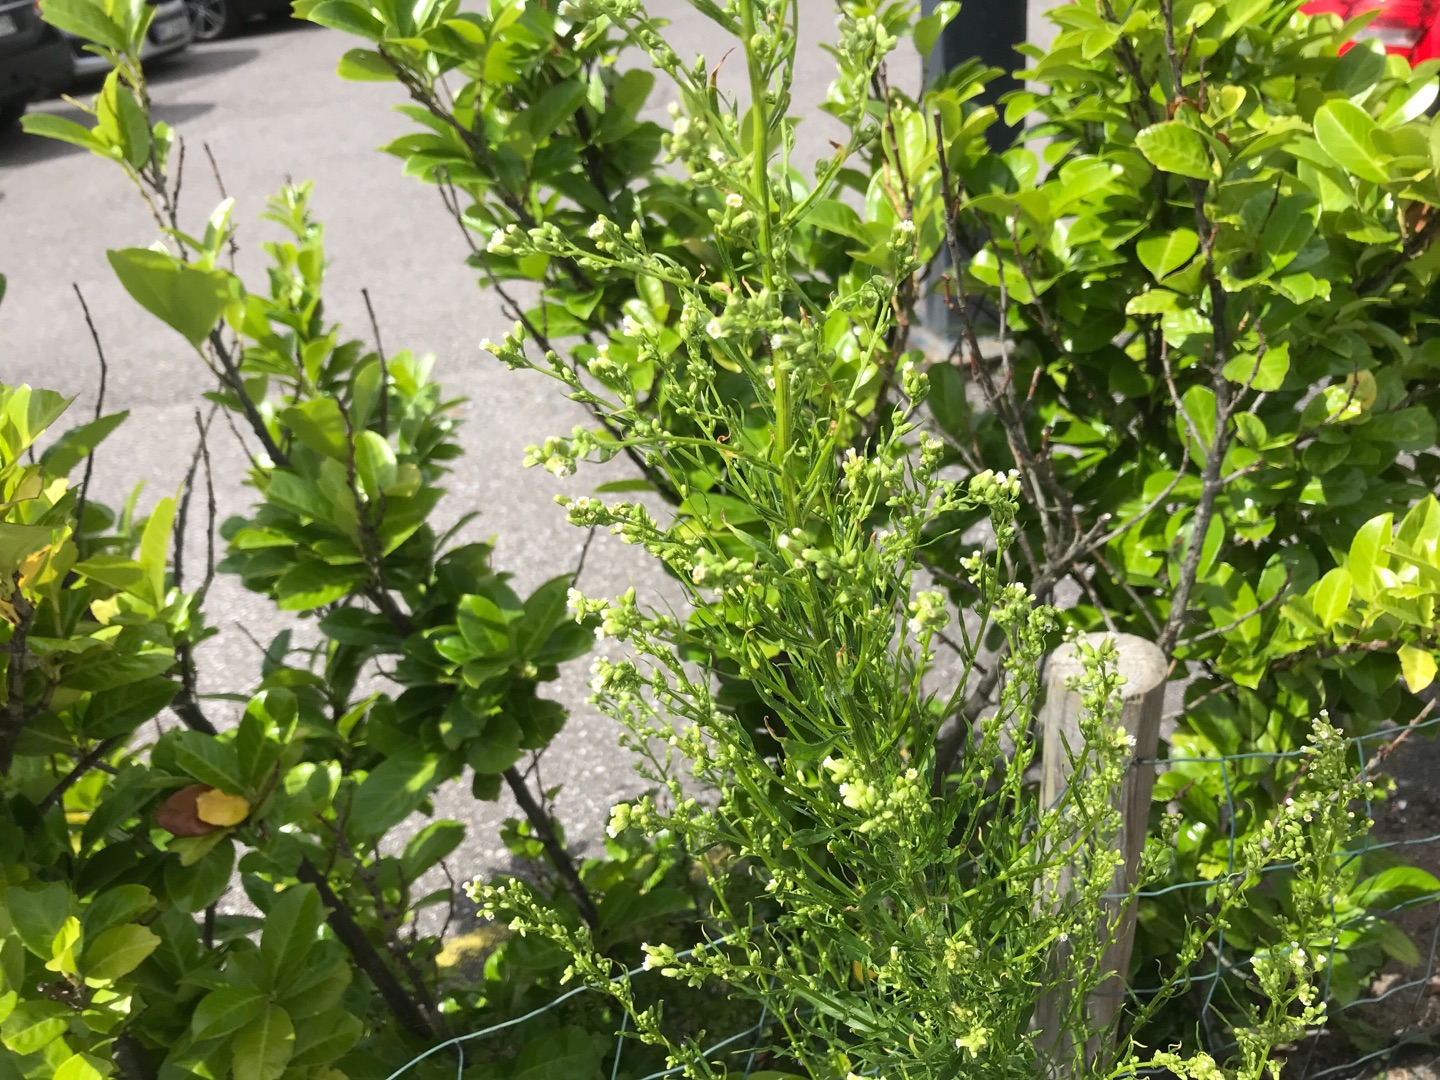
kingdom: Plantae
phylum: Tracheophyta
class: Magnoliopsida
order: Asterales
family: Asteraceae
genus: Erigeron
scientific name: Erigeron canadensis
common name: Kanadisk bakkestjerne
